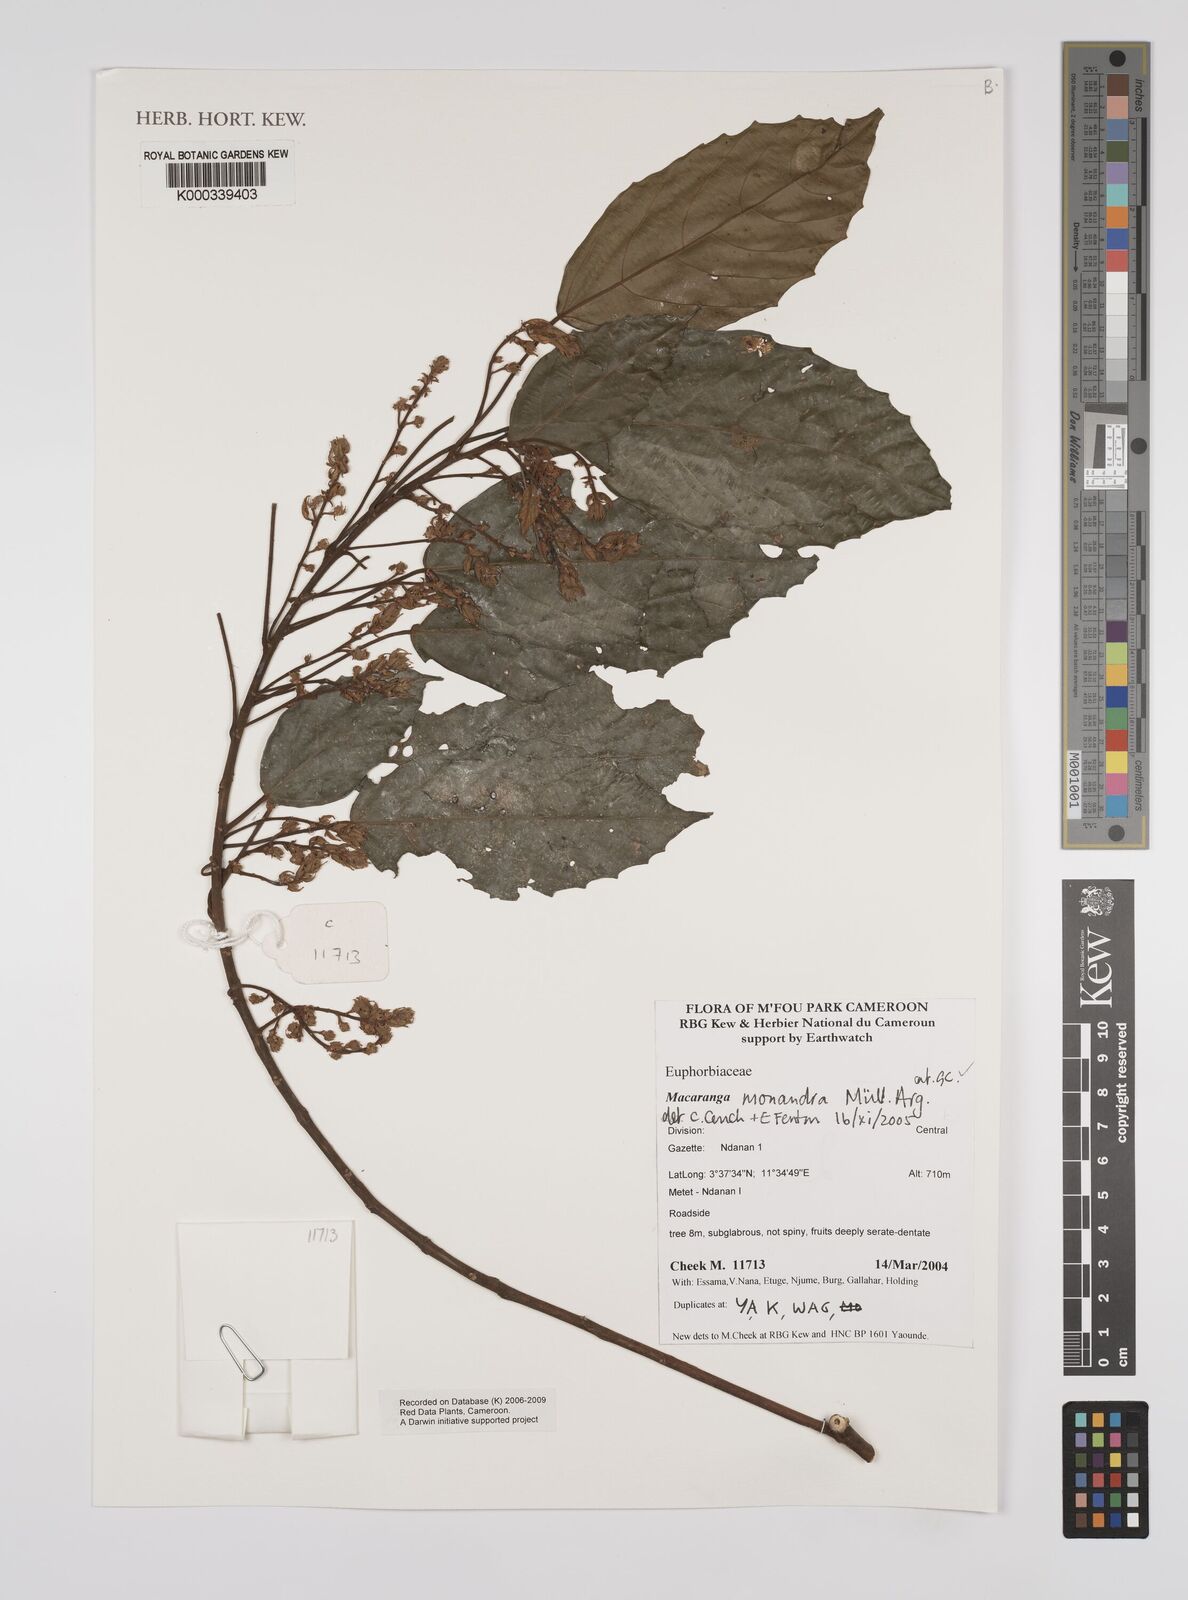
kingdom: Plantae
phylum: Tracheophyta
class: Magnoliopsida
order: Malpighiales
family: Euphorbiaceae
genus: Macaranga
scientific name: Macaranga
